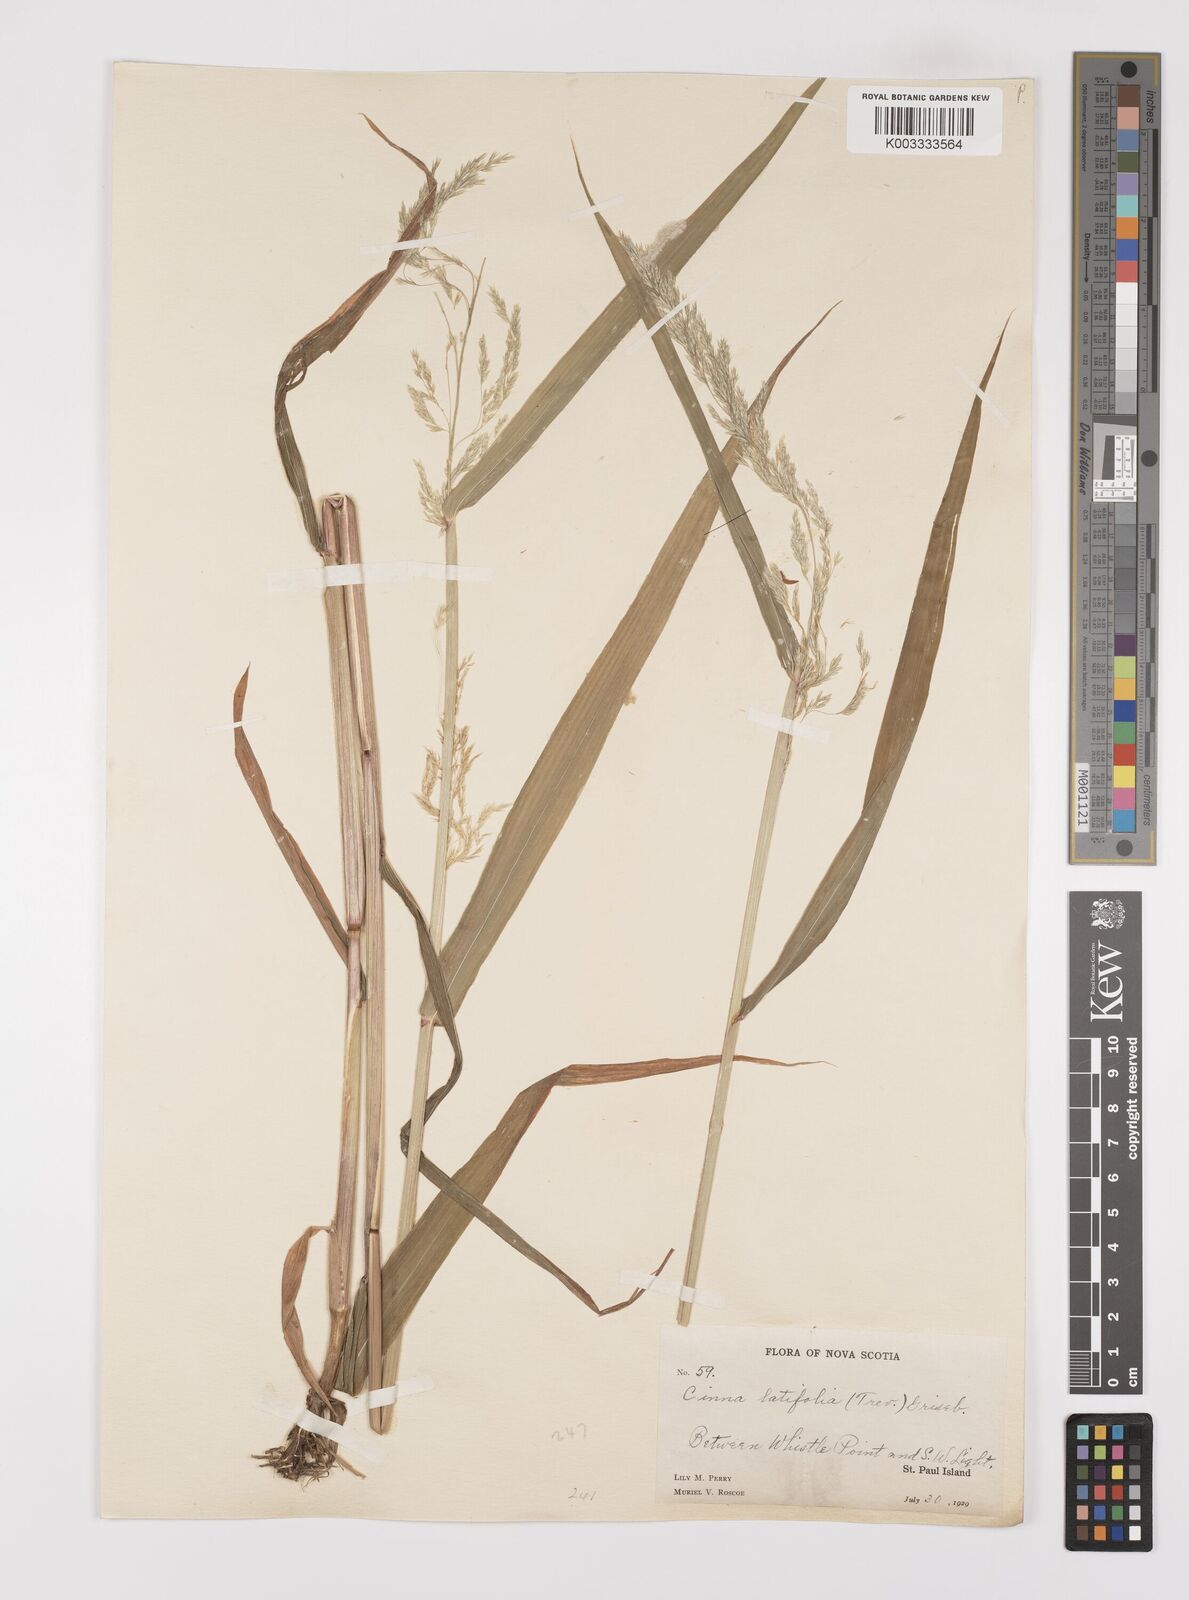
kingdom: Plantae
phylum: Tracheophyta
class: Liliopsida
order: Poales
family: Poaceae
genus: Cinna
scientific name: Cinna latifolia
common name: Drooping woodreed
